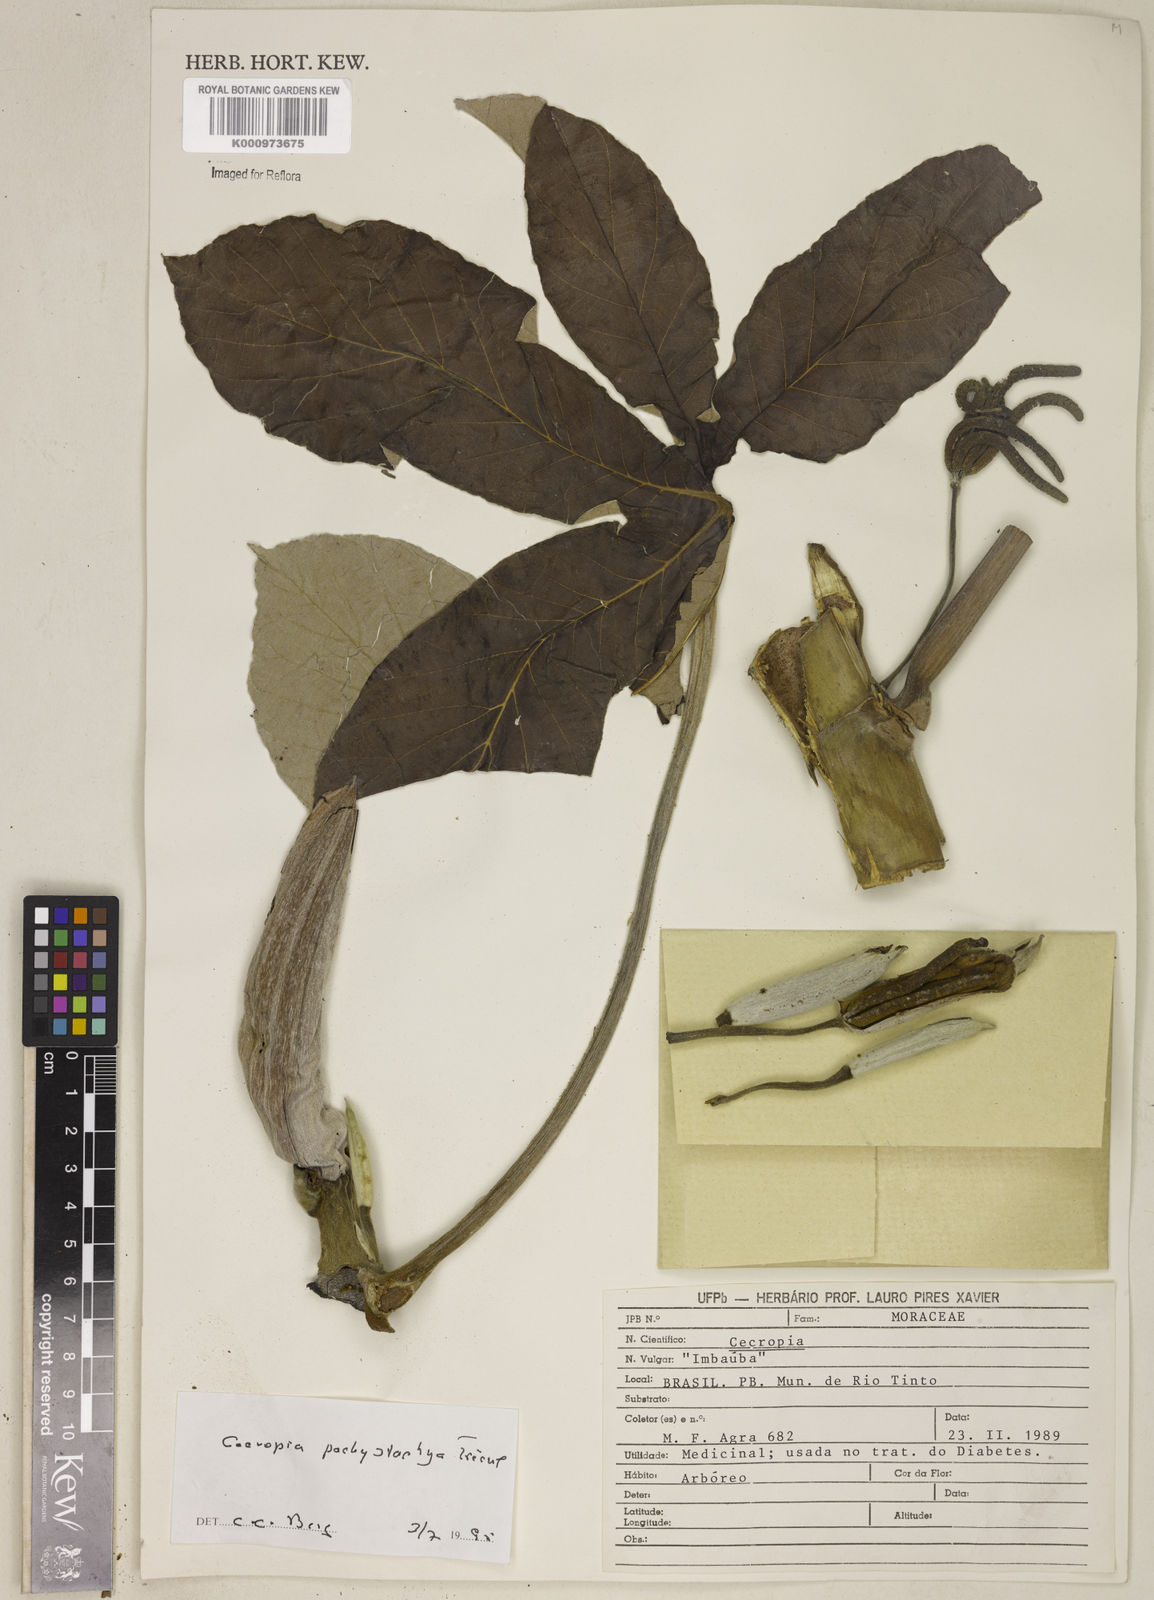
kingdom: Plantae
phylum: Tracheophyta
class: Magnoliopsida
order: Rosales
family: Urticaceae
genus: Cecropia
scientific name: Cecropia
